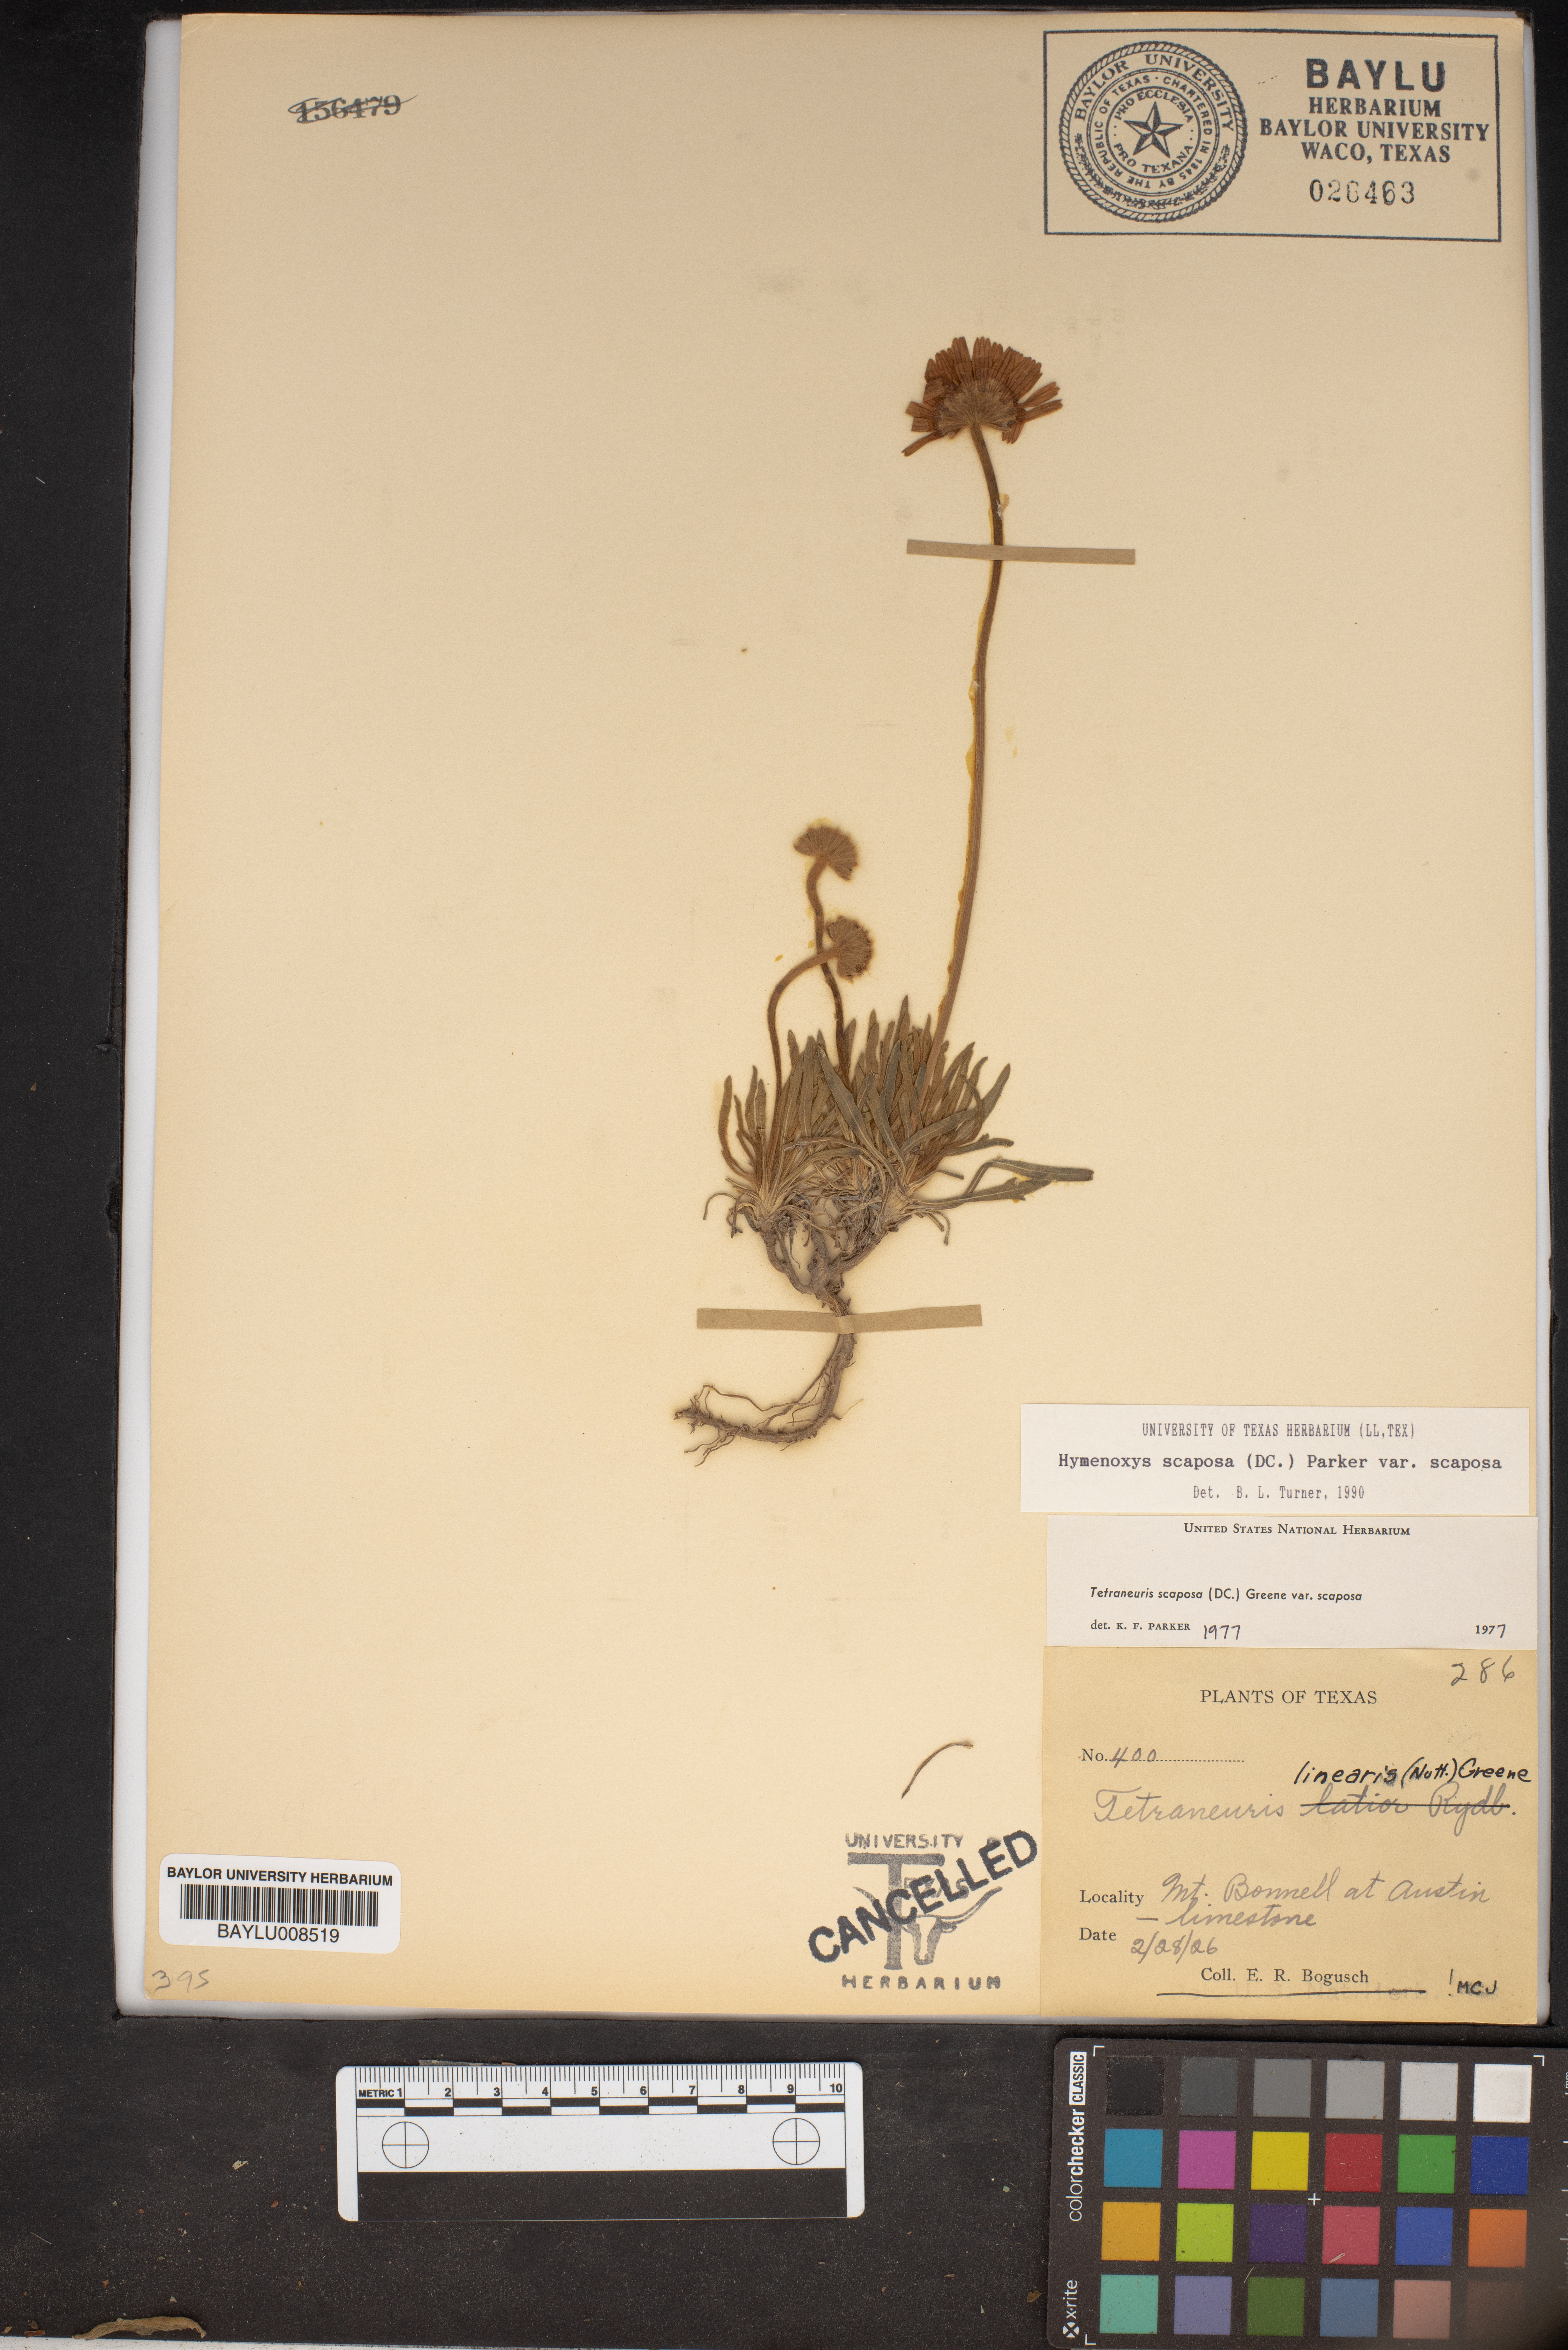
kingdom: Plantae
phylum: Tracheophyta
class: Magnoliopsida
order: Asterales
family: Asteraceae
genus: Tetraneuris
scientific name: Tetraneuris scaposa
